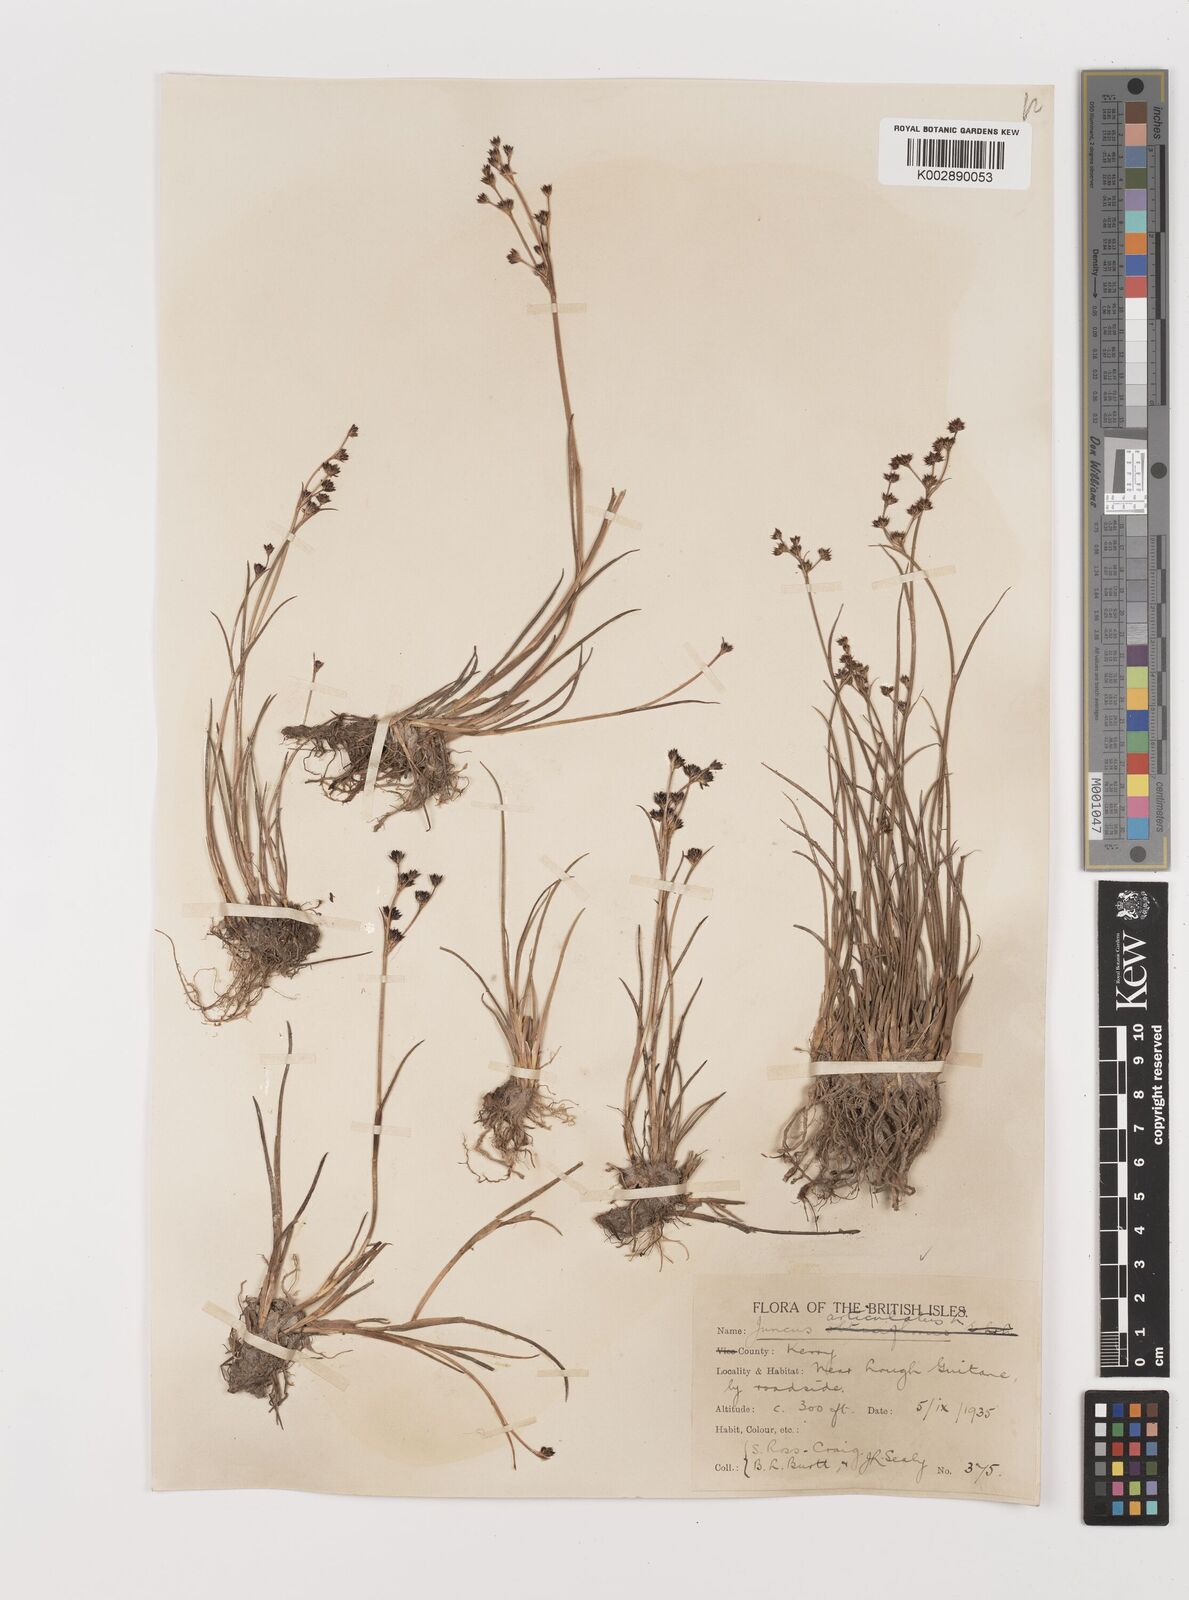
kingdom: Plantae
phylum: Tracheophyta
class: Liliopsida
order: Poales
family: Juncaceae
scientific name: Juncaceae
